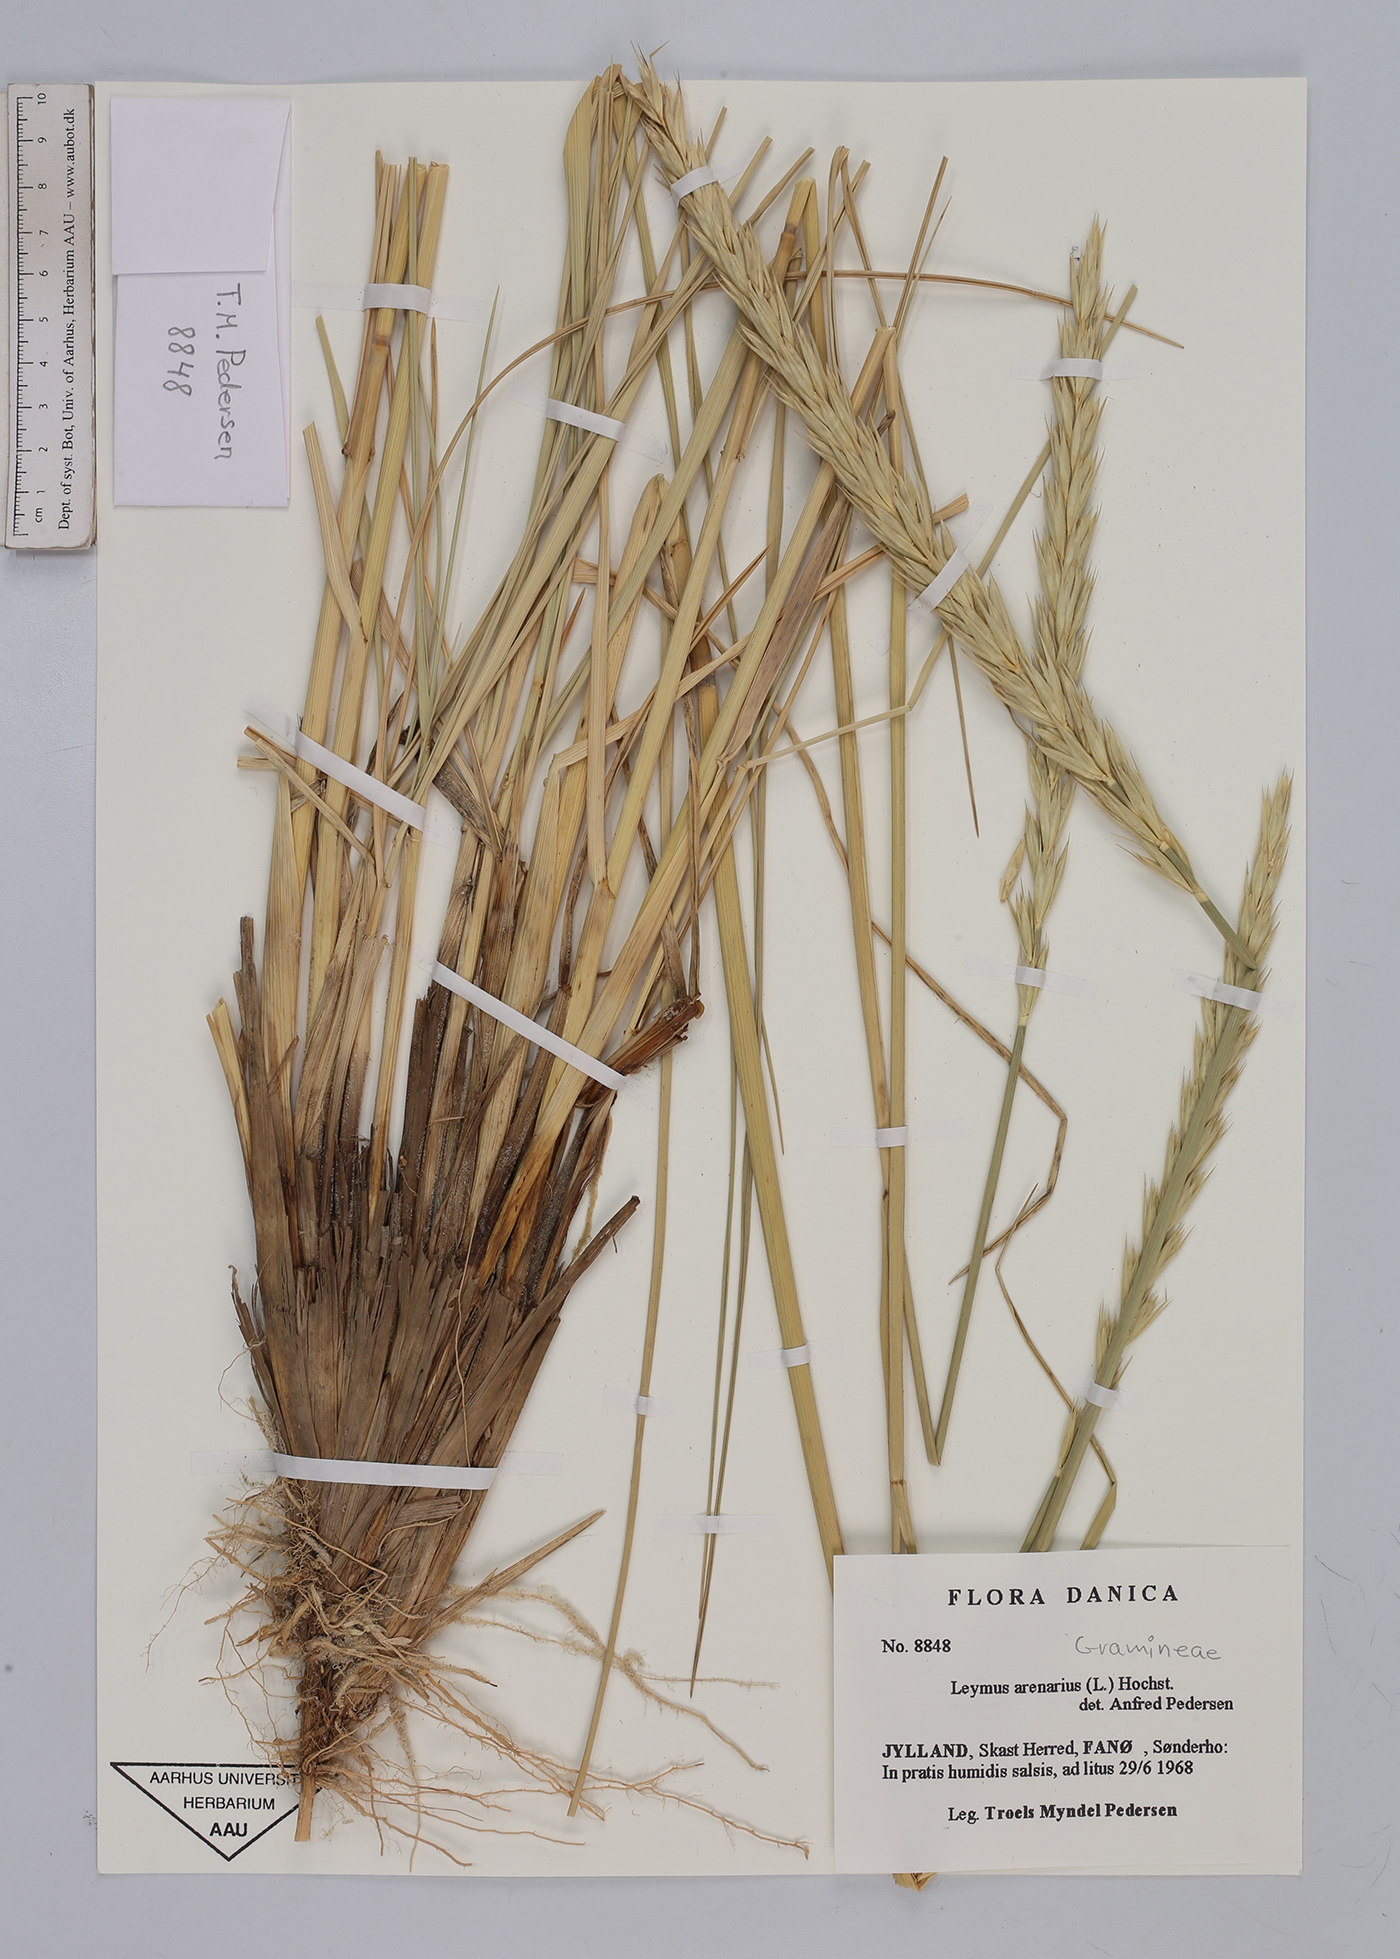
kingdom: Plantae
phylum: Tracheophyta
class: Liliopsida
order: Poales
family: Poaceae
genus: Leymus
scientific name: Leymus arenarius
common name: Lyme-grass
